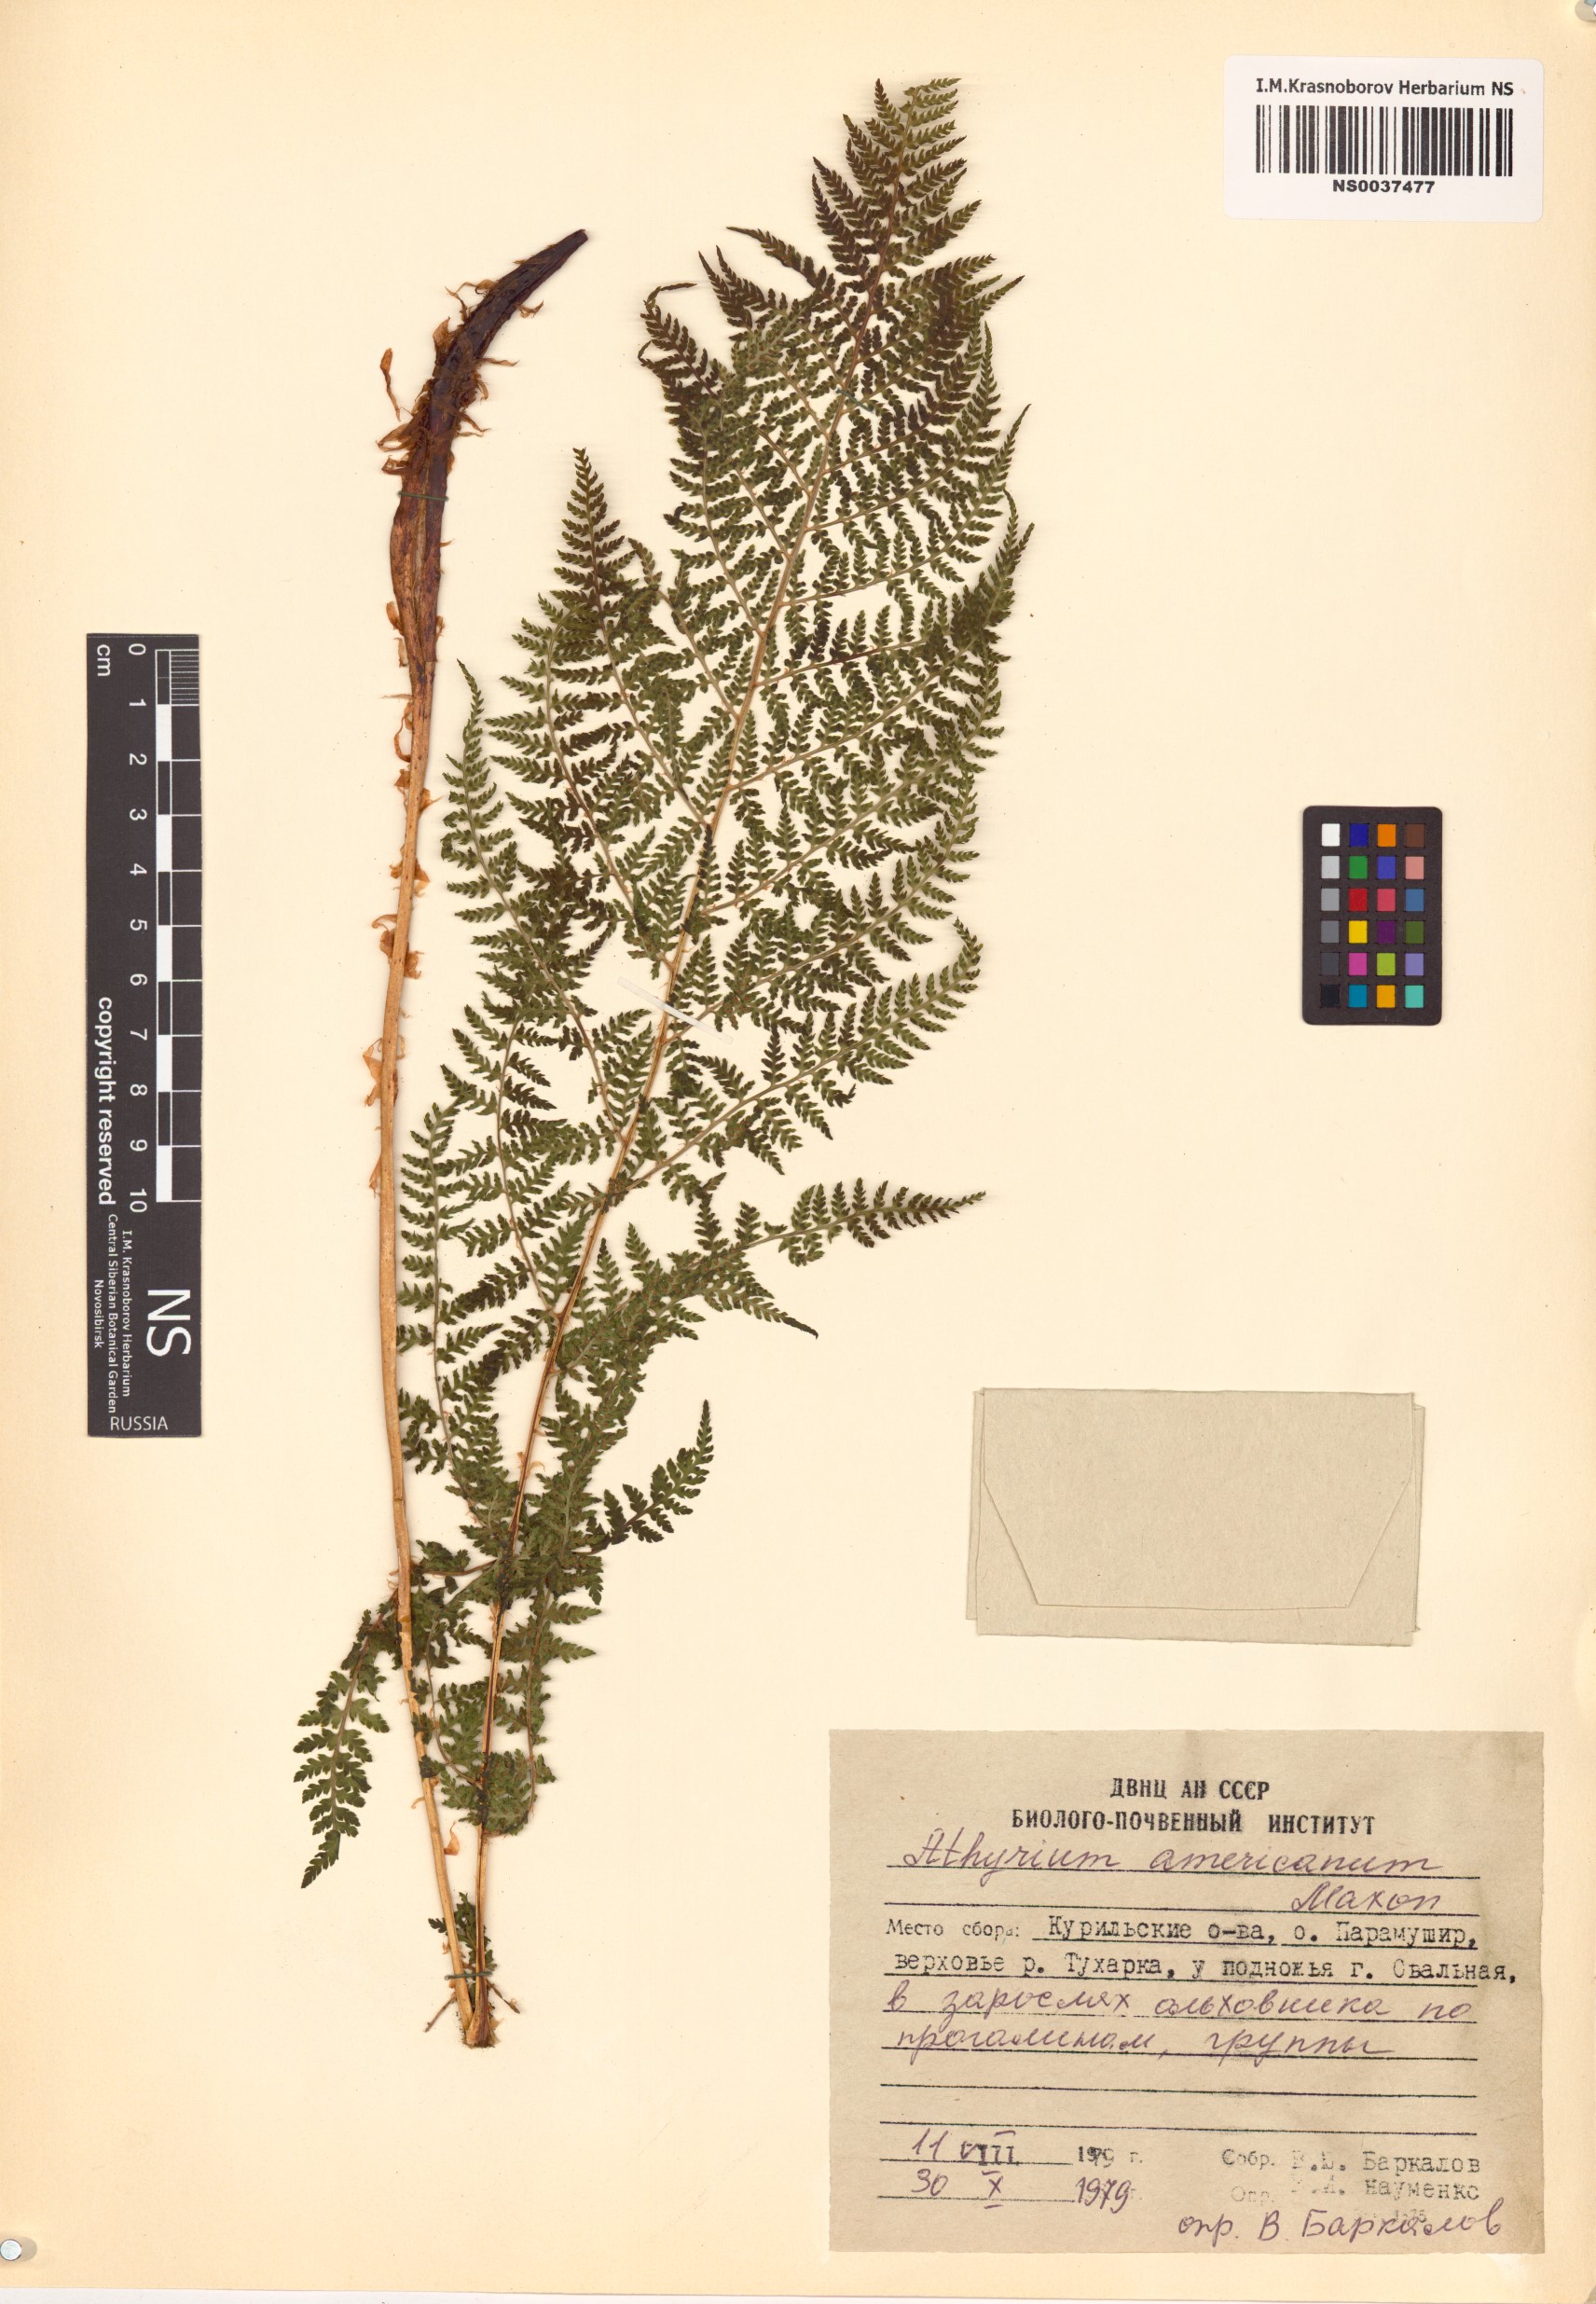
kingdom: Plantae
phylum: Tracheophyta
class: Polypodiopsida
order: Polypodiales
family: Athyriaceae
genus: Athyrium
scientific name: Athyrium americanum
